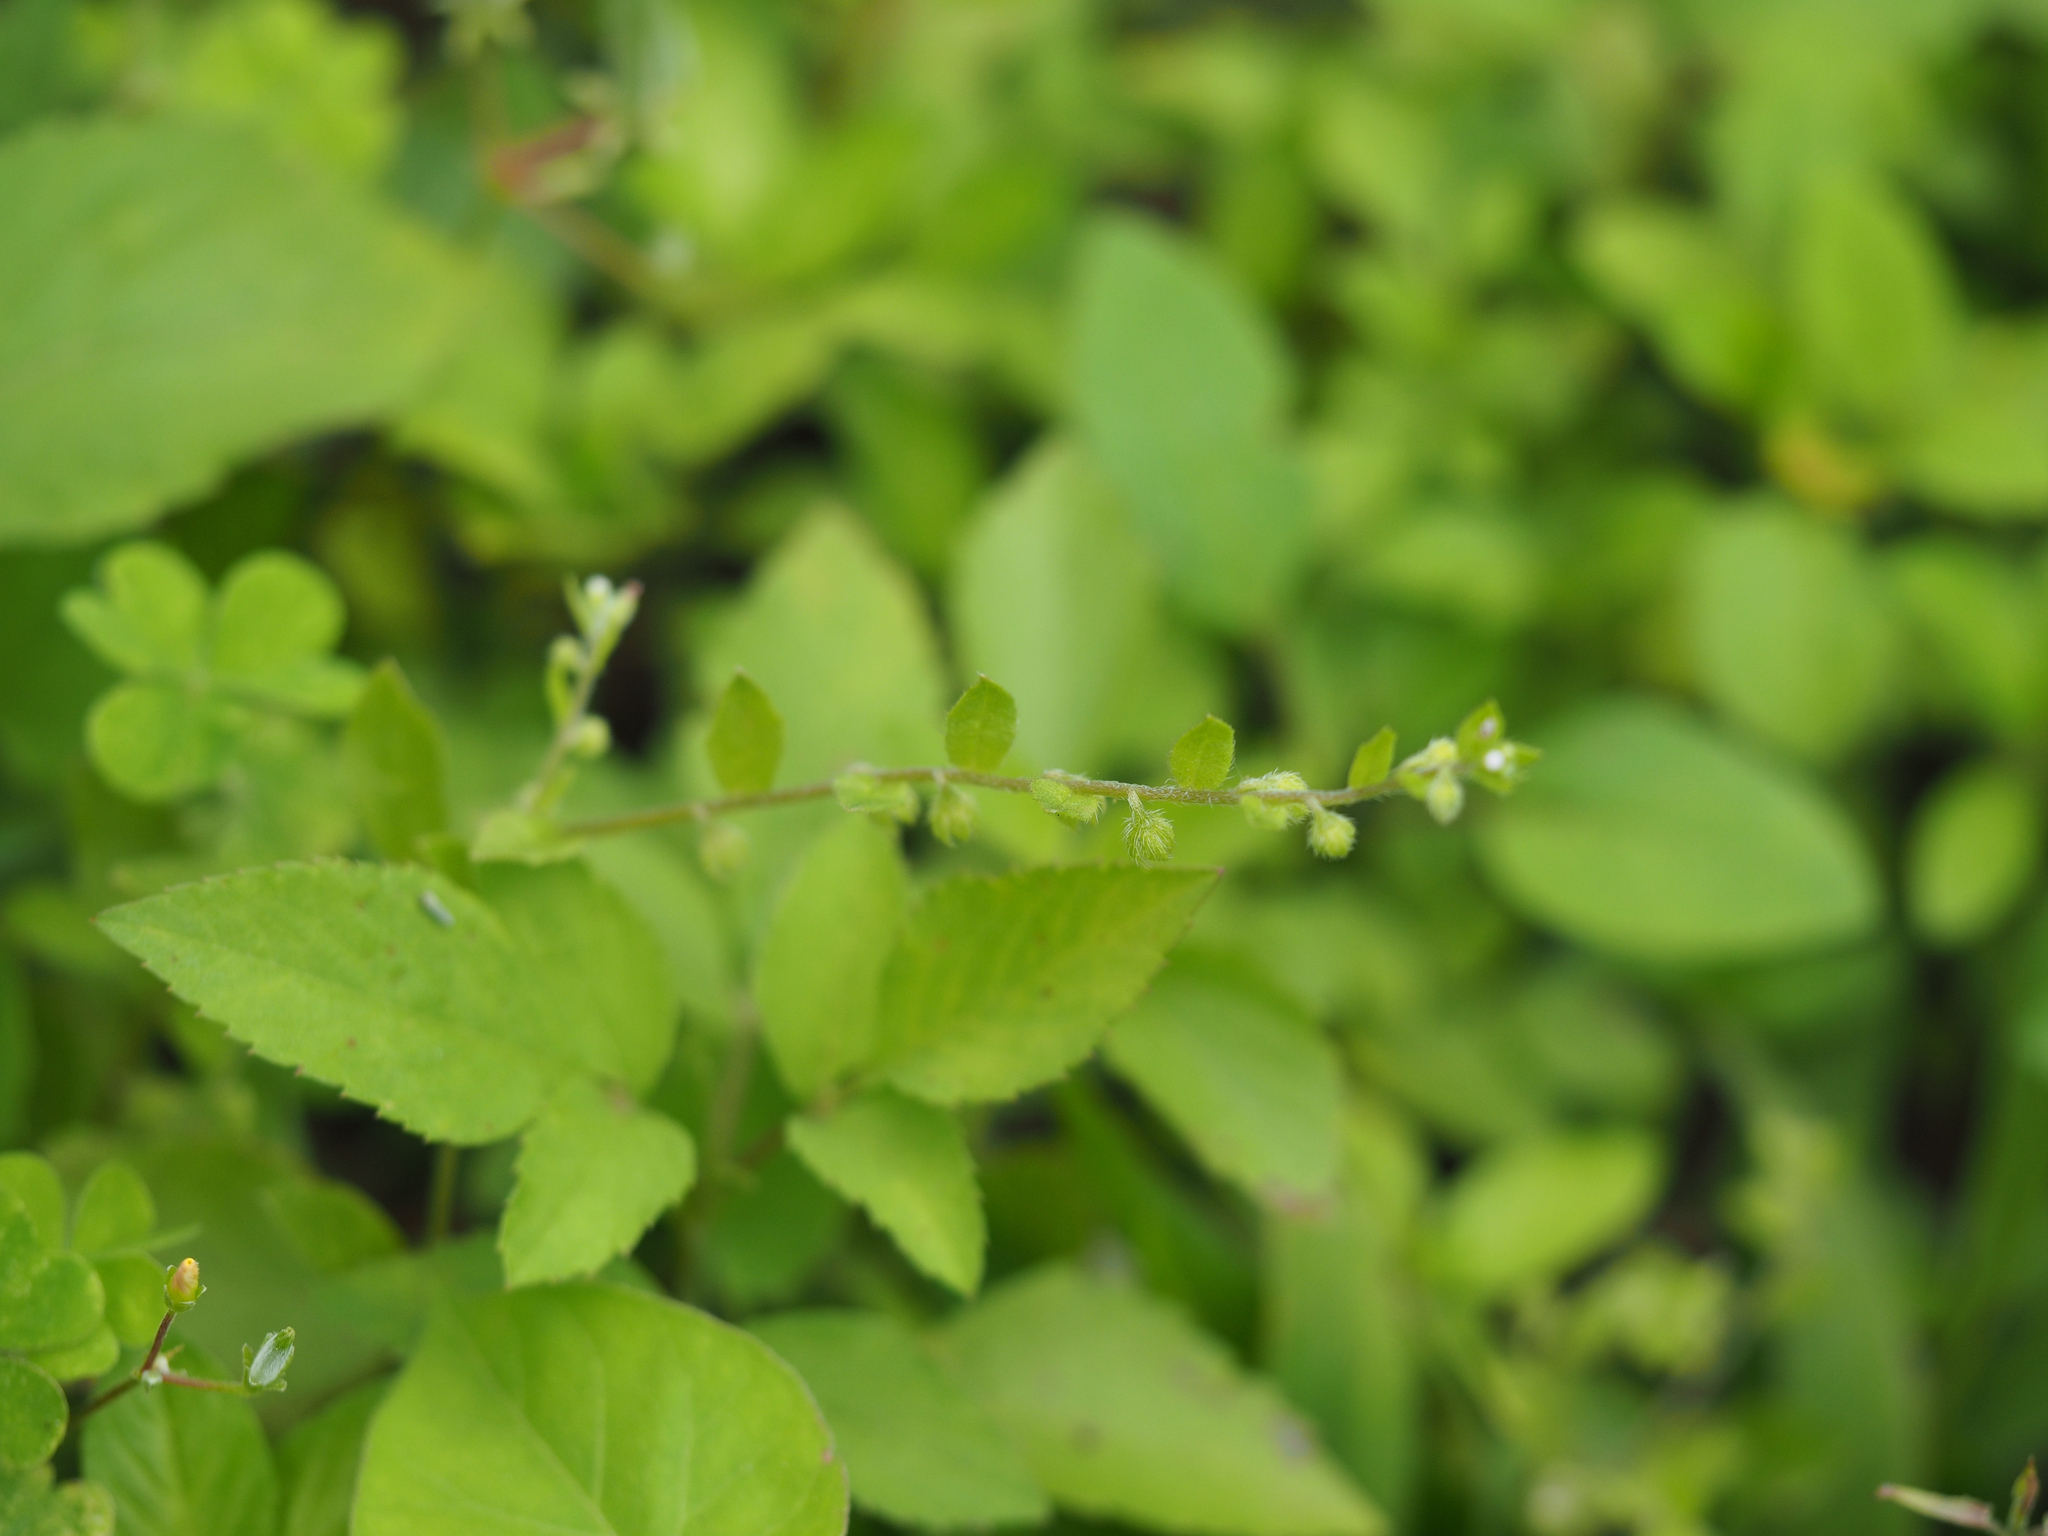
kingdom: Plantae
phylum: Tracheophyta
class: Magnoliopsida
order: Boraginales
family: Boraginaceae
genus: Bothriospermum
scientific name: Bothriospermum zeylanicum
